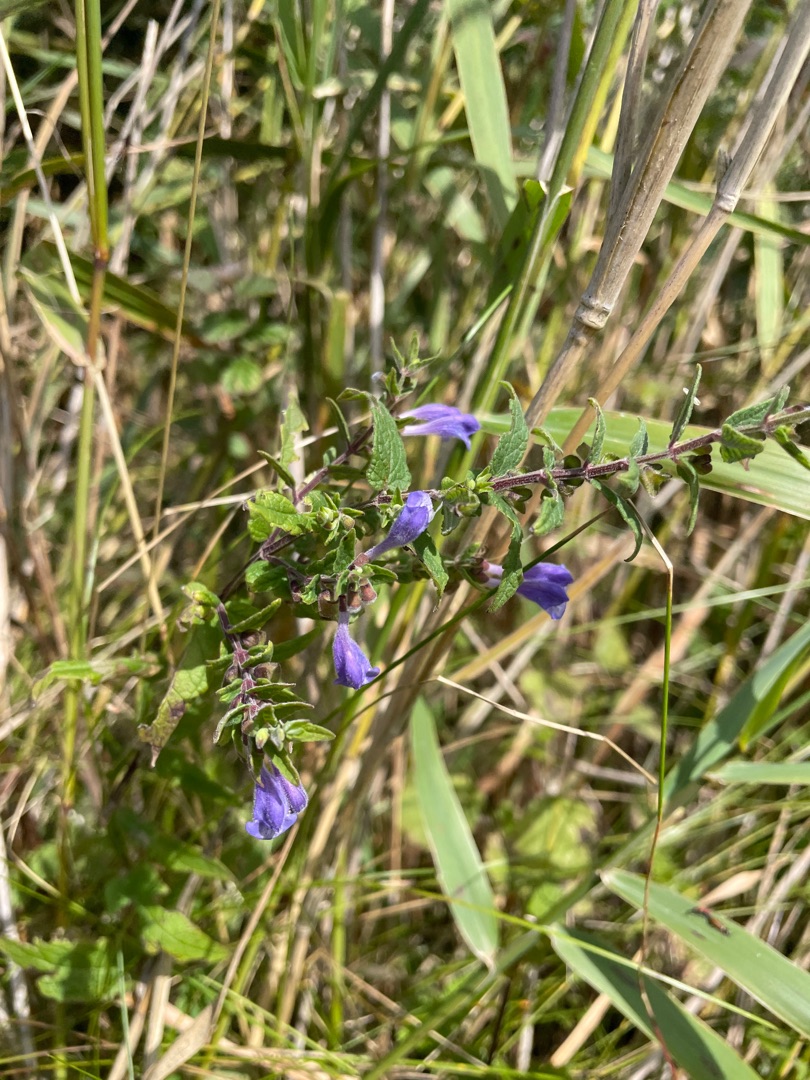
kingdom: Plantae
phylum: Tracheophyta
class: Magnoliopsida
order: Lamiales
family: Lamiaceae
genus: Scutellaria
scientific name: Scutellaria galericulata
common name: Almindelig skjolddrager
